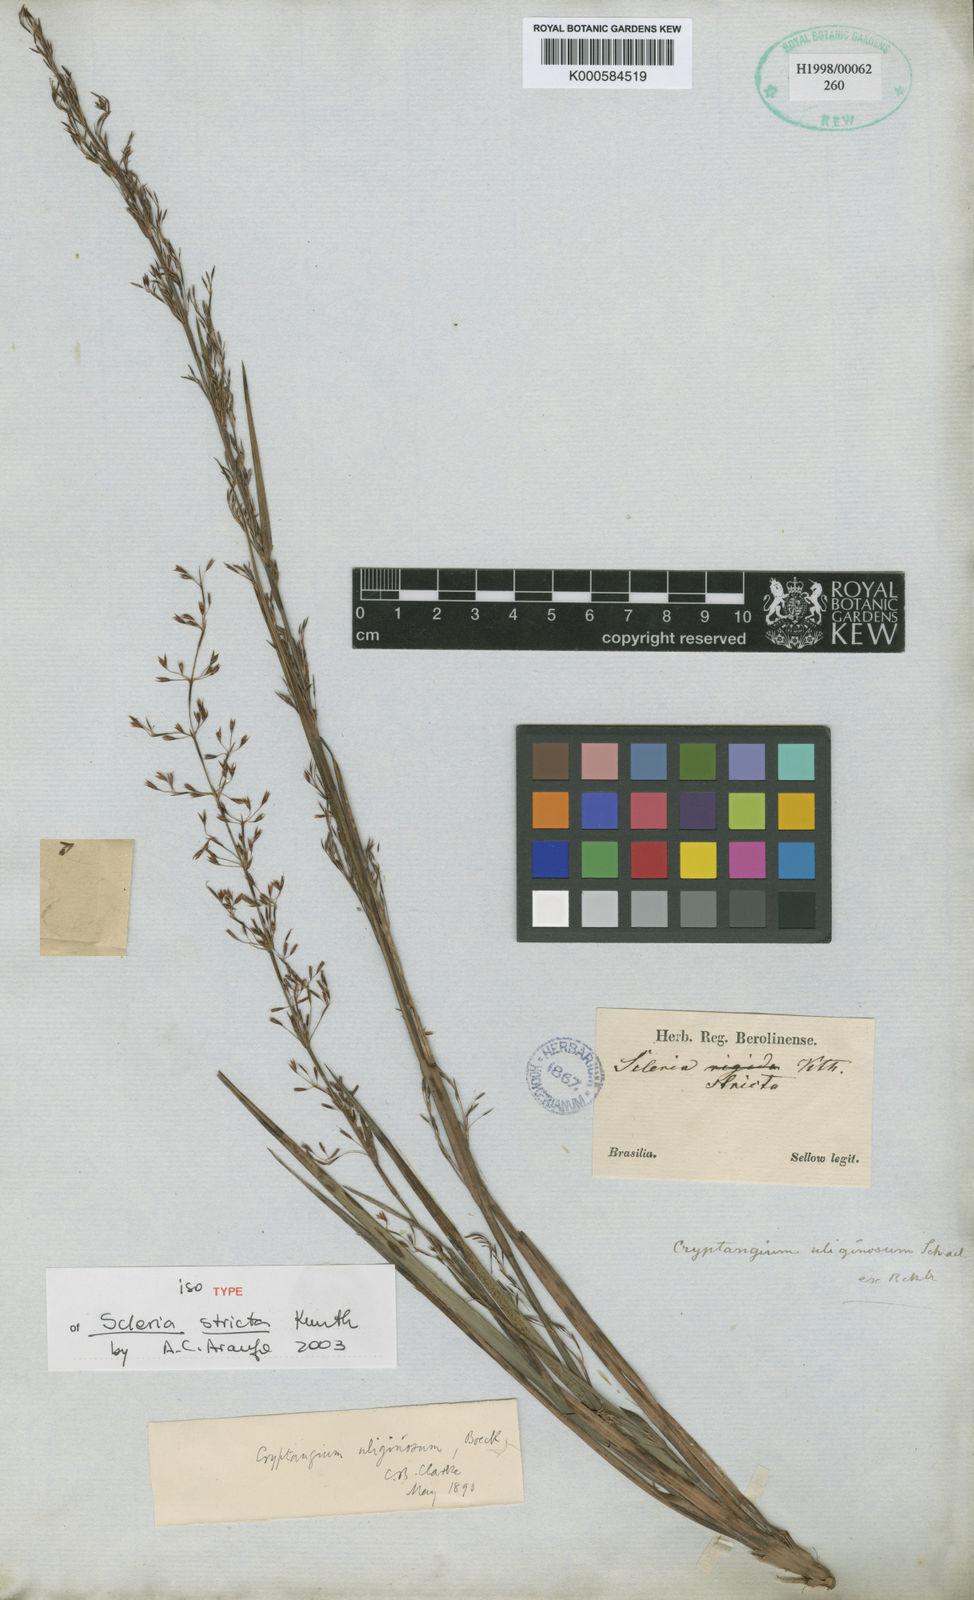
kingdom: Plantae
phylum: Tracheophyta
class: Liliopsida
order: Poales
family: Cyperaceae
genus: Cryptangium
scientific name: Cryptangium verticillatum
